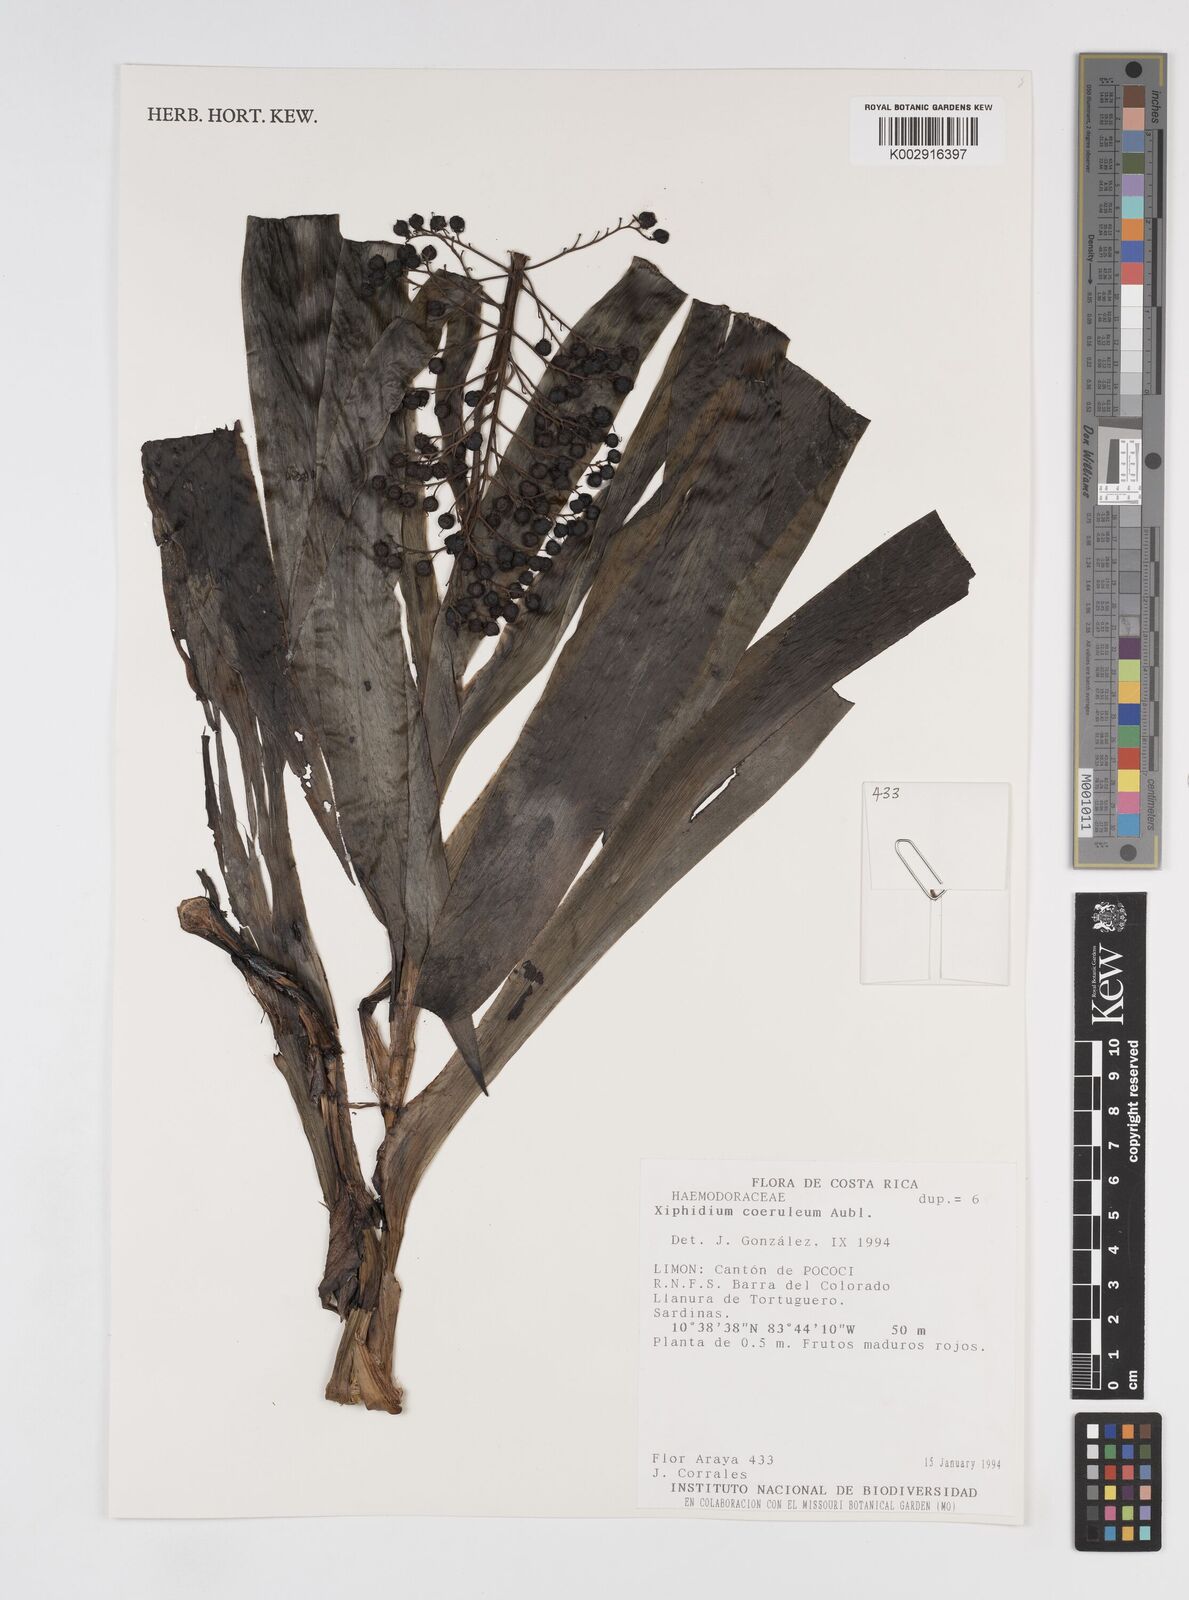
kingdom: Plantae
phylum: Tracheophyta
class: Liliopsida
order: Commelinales
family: Haemodoraceae
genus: Xiphidium
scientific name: Xiphidium caeruleum
